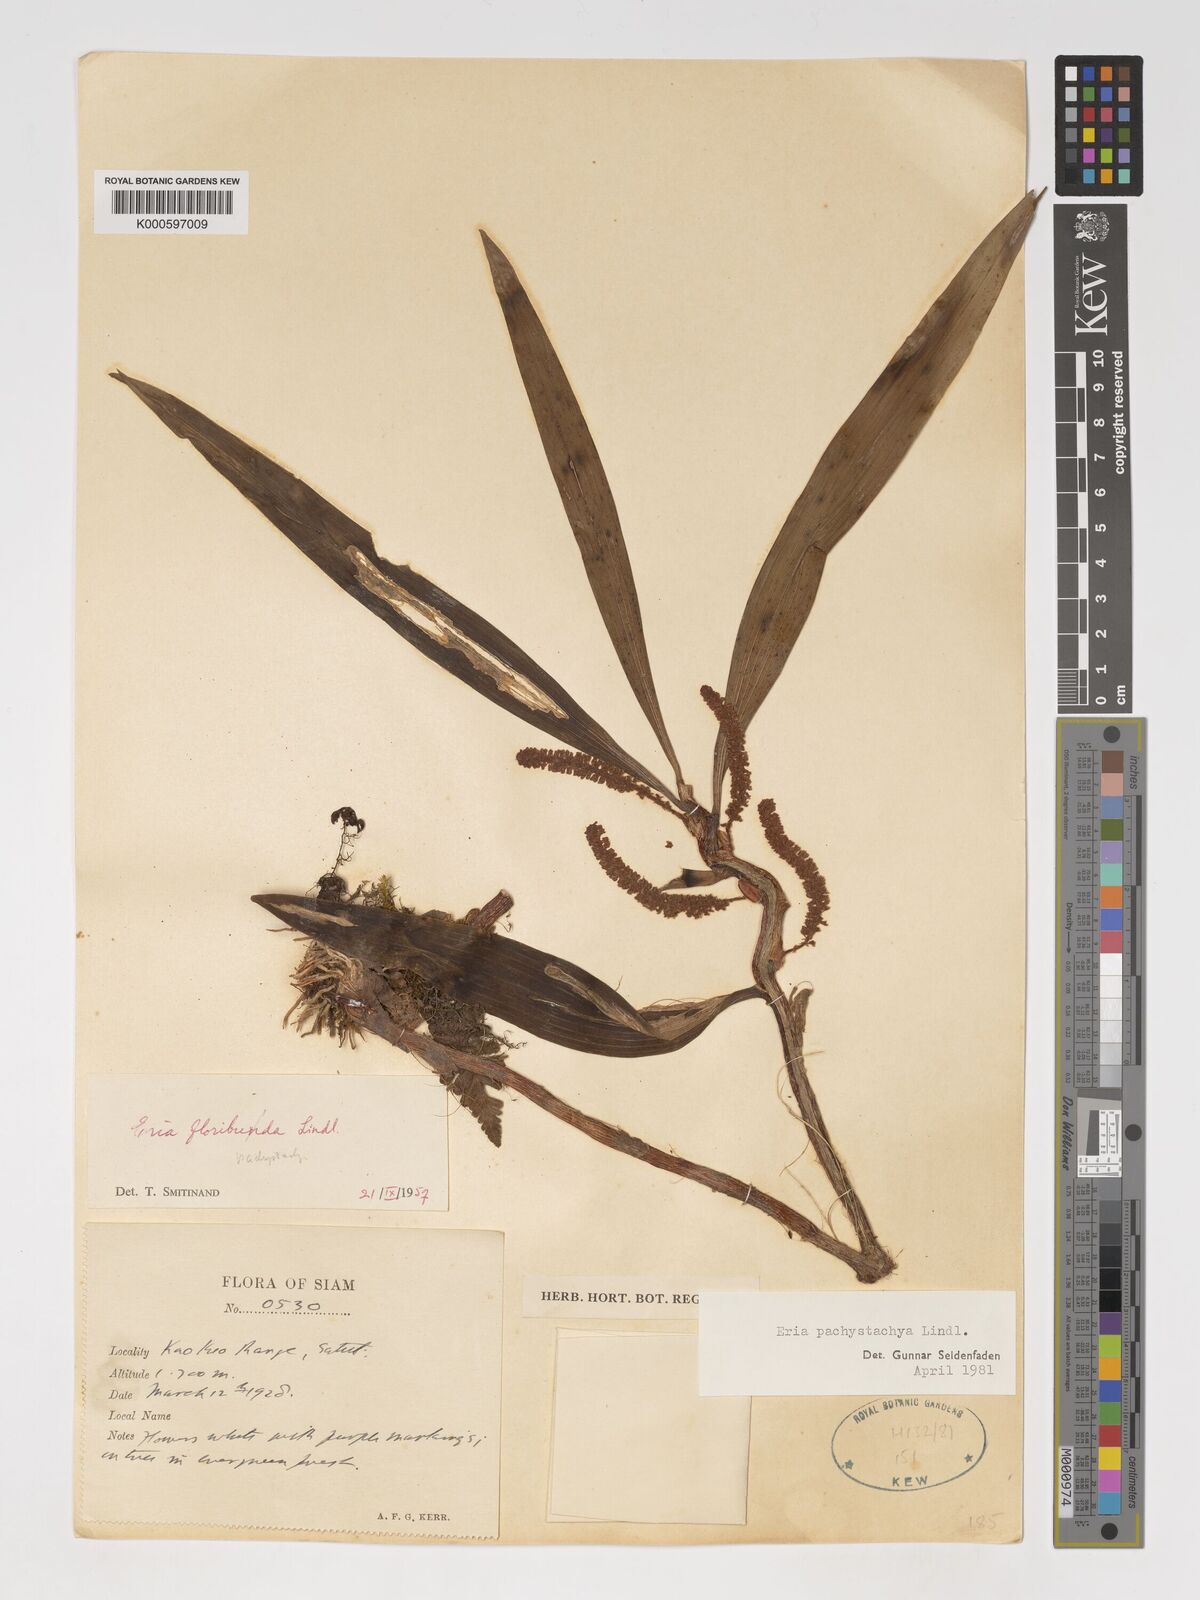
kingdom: Plantae
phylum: Tracheophyta
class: Liliopsida
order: Asparagales
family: Orchidaceae
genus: Pinalia
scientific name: Pinalia pachystachya
